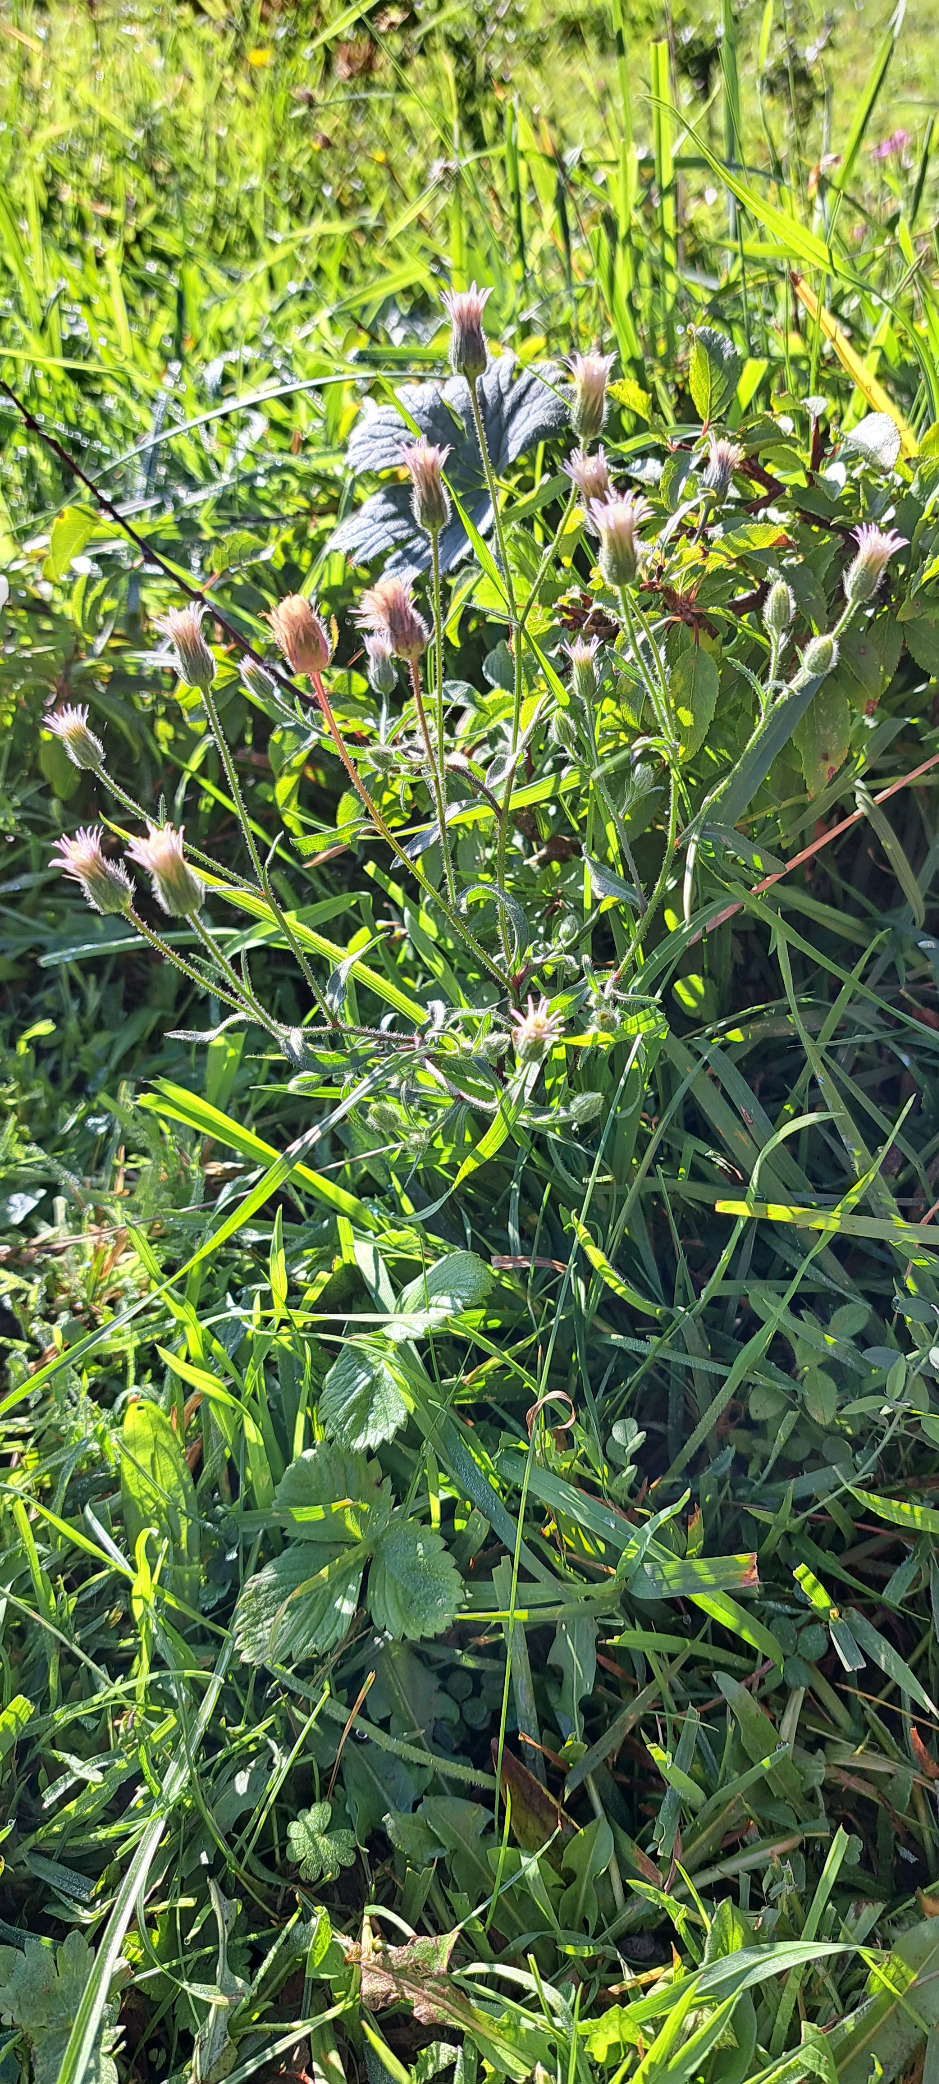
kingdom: Plantae
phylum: Tracheophyta
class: Magnoliopsida
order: Asterales
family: Asteraceae
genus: Erigeron
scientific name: Erigeron acris
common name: Bitter bakkestjerne
